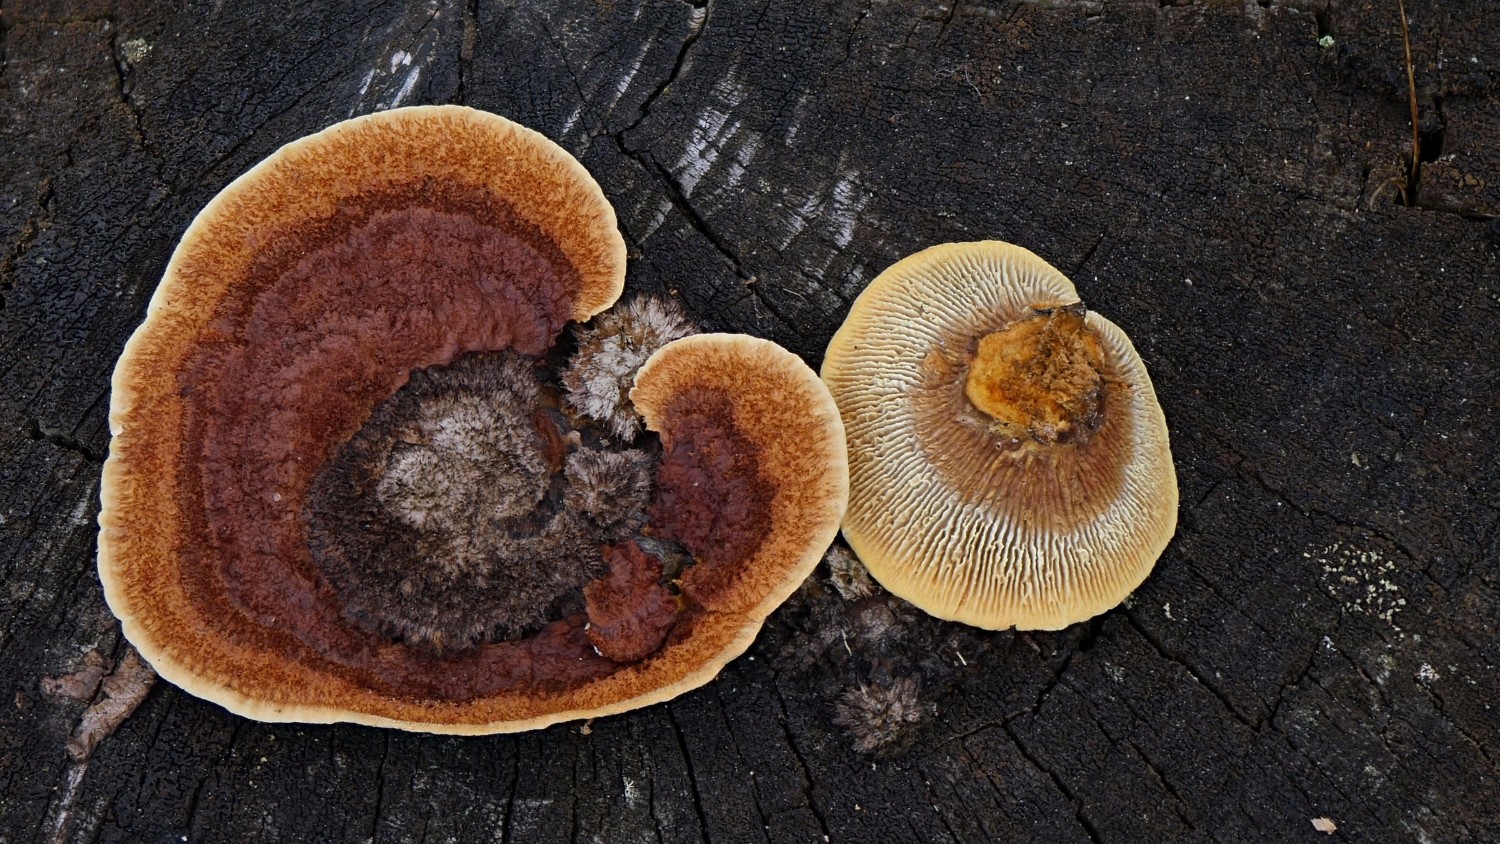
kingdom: Fungi
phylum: Basidiomycota
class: Agaricomycetes
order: Gloeophyllales
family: Gloeophyllaceae
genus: Gloeophyllum
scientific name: Gloeophyllum sepiarium
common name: fyrre-korkhat
